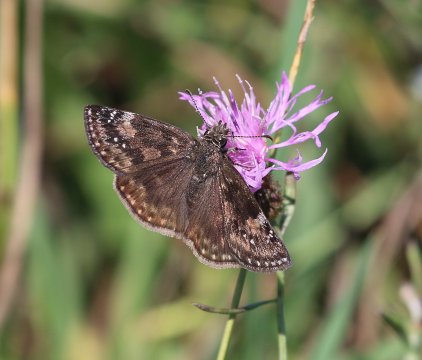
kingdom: Animalia
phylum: Arthropoda
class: Insecta
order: Lepidoptera
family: Hesperiidae
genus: Gesta
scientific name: Gesta
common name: Wild Indigo Duskywing
